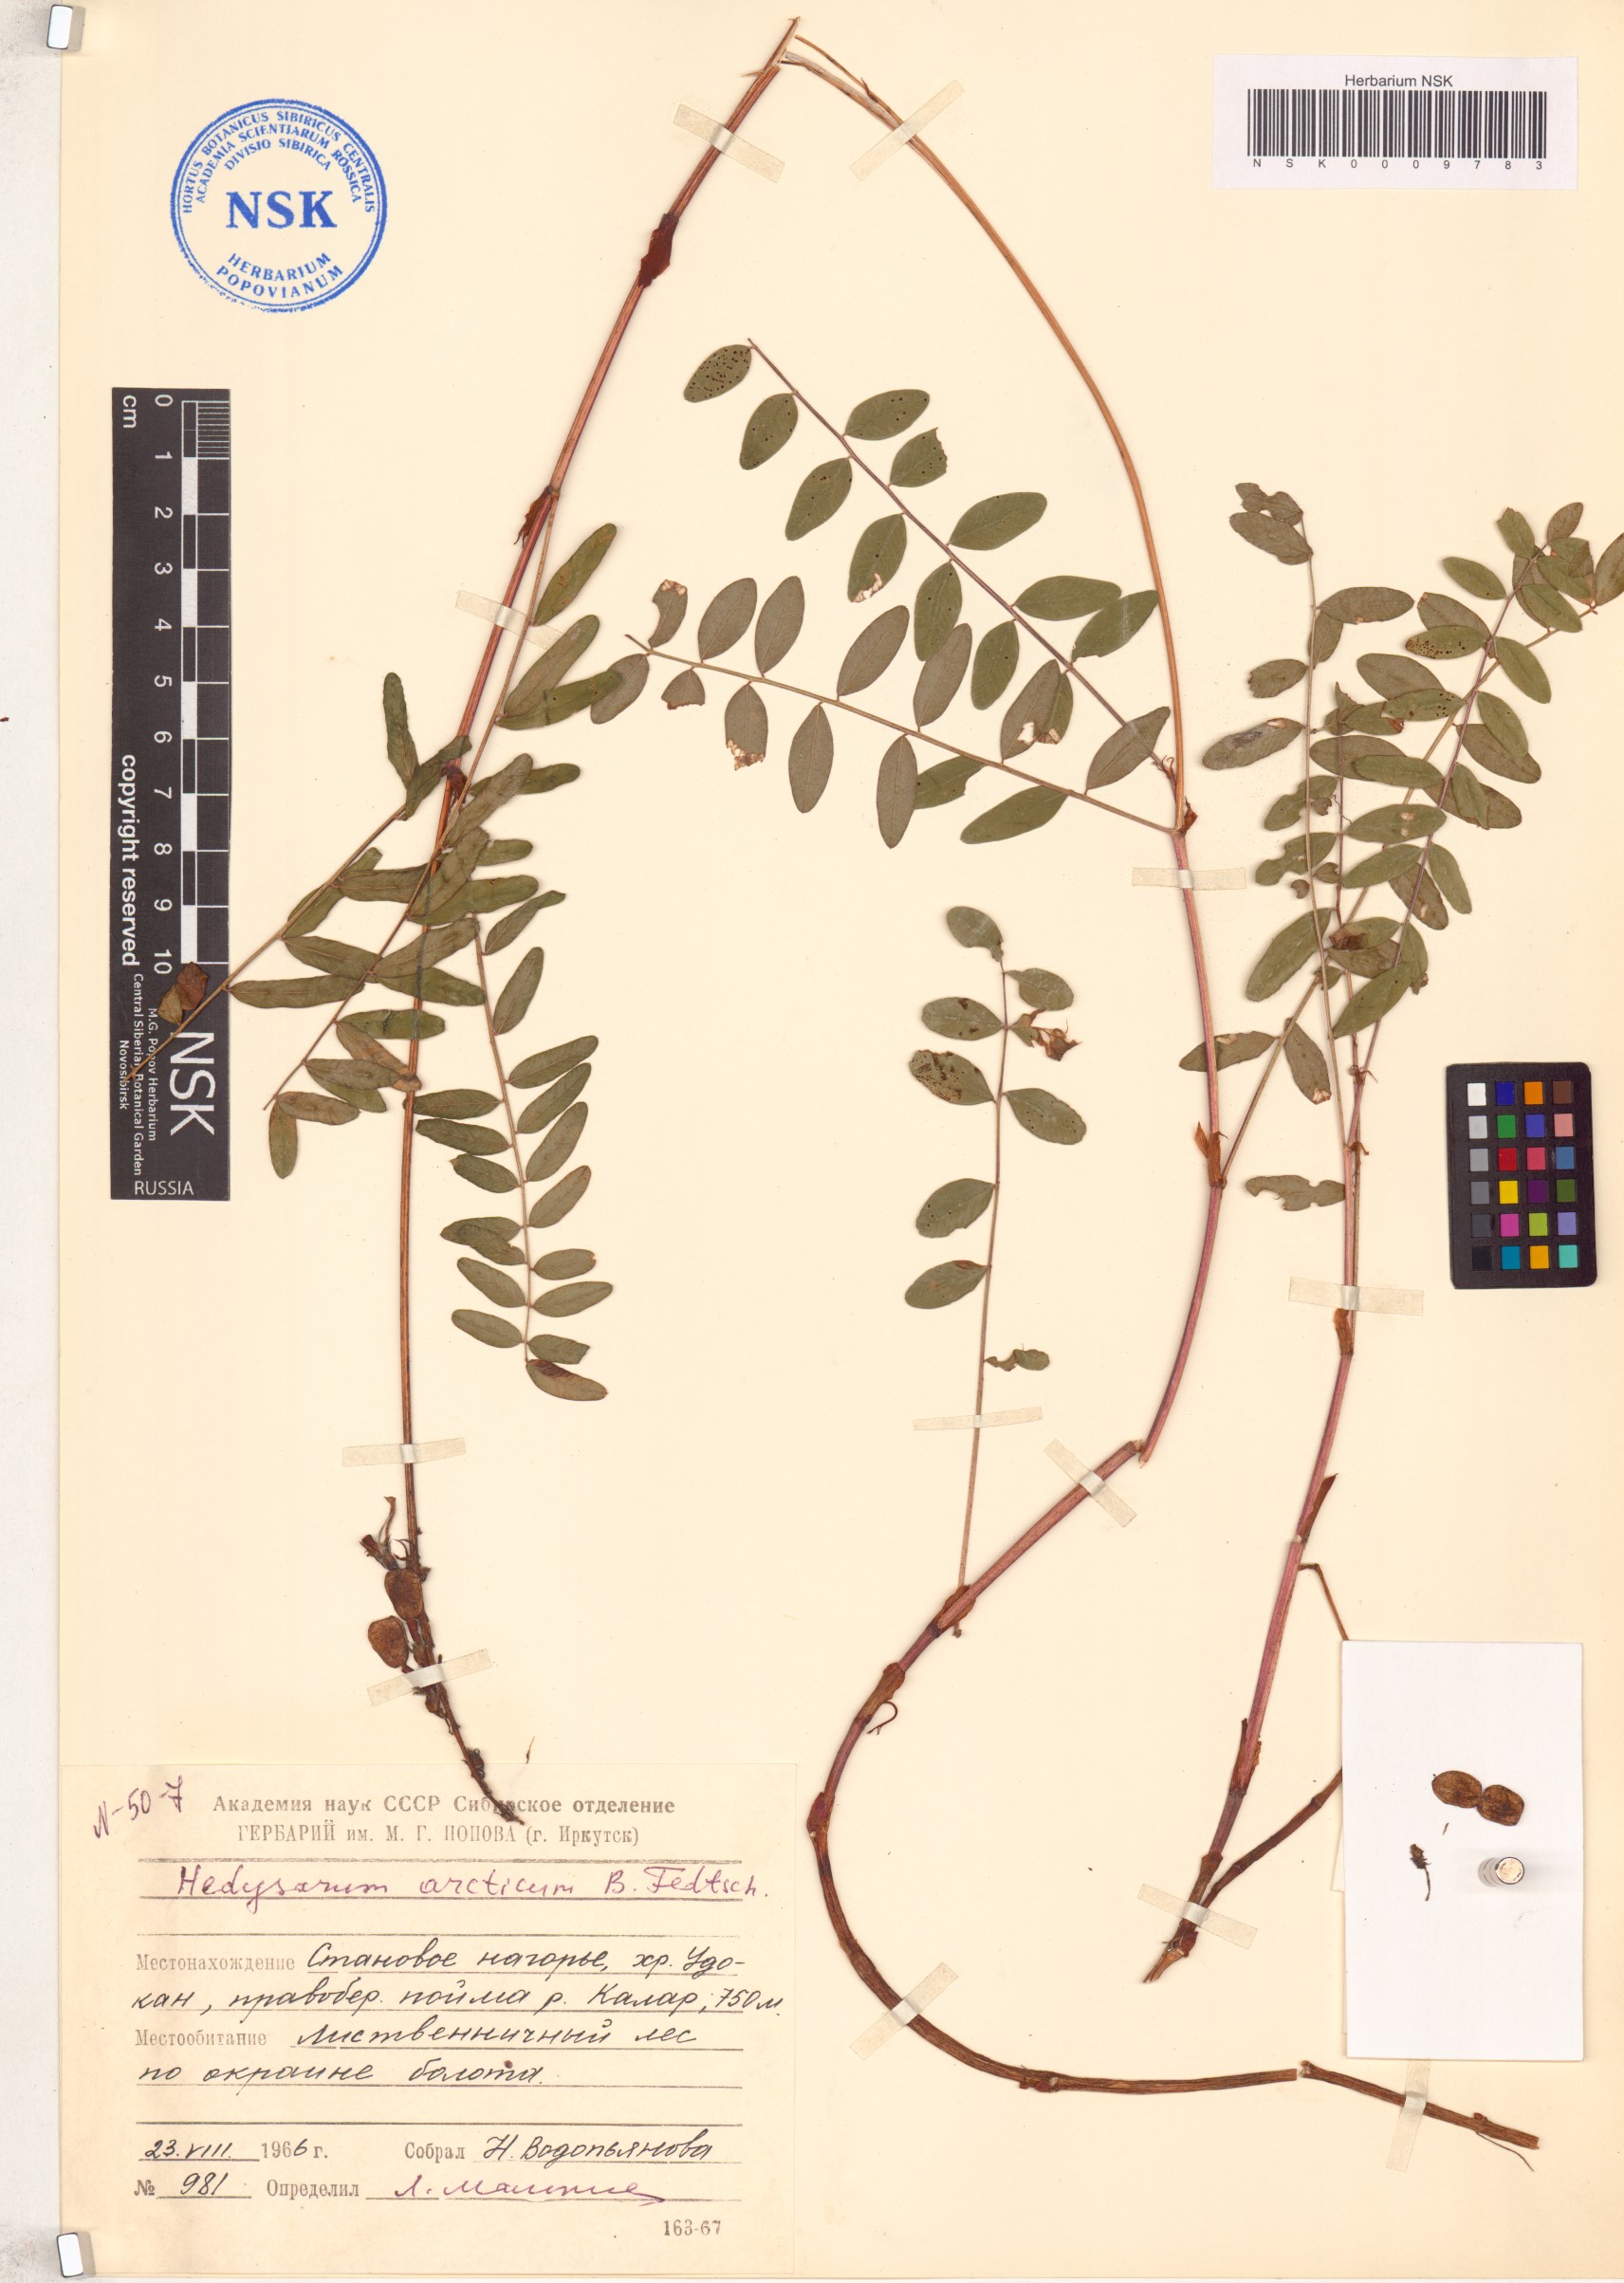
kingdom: Plantae
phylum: Tracheophyta
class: Magnoliopsida
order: Fabales
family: Fabaceae
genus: Hedysarum
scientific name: Hedysarum hedysaroides
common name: Alpine french-honeysuckle
